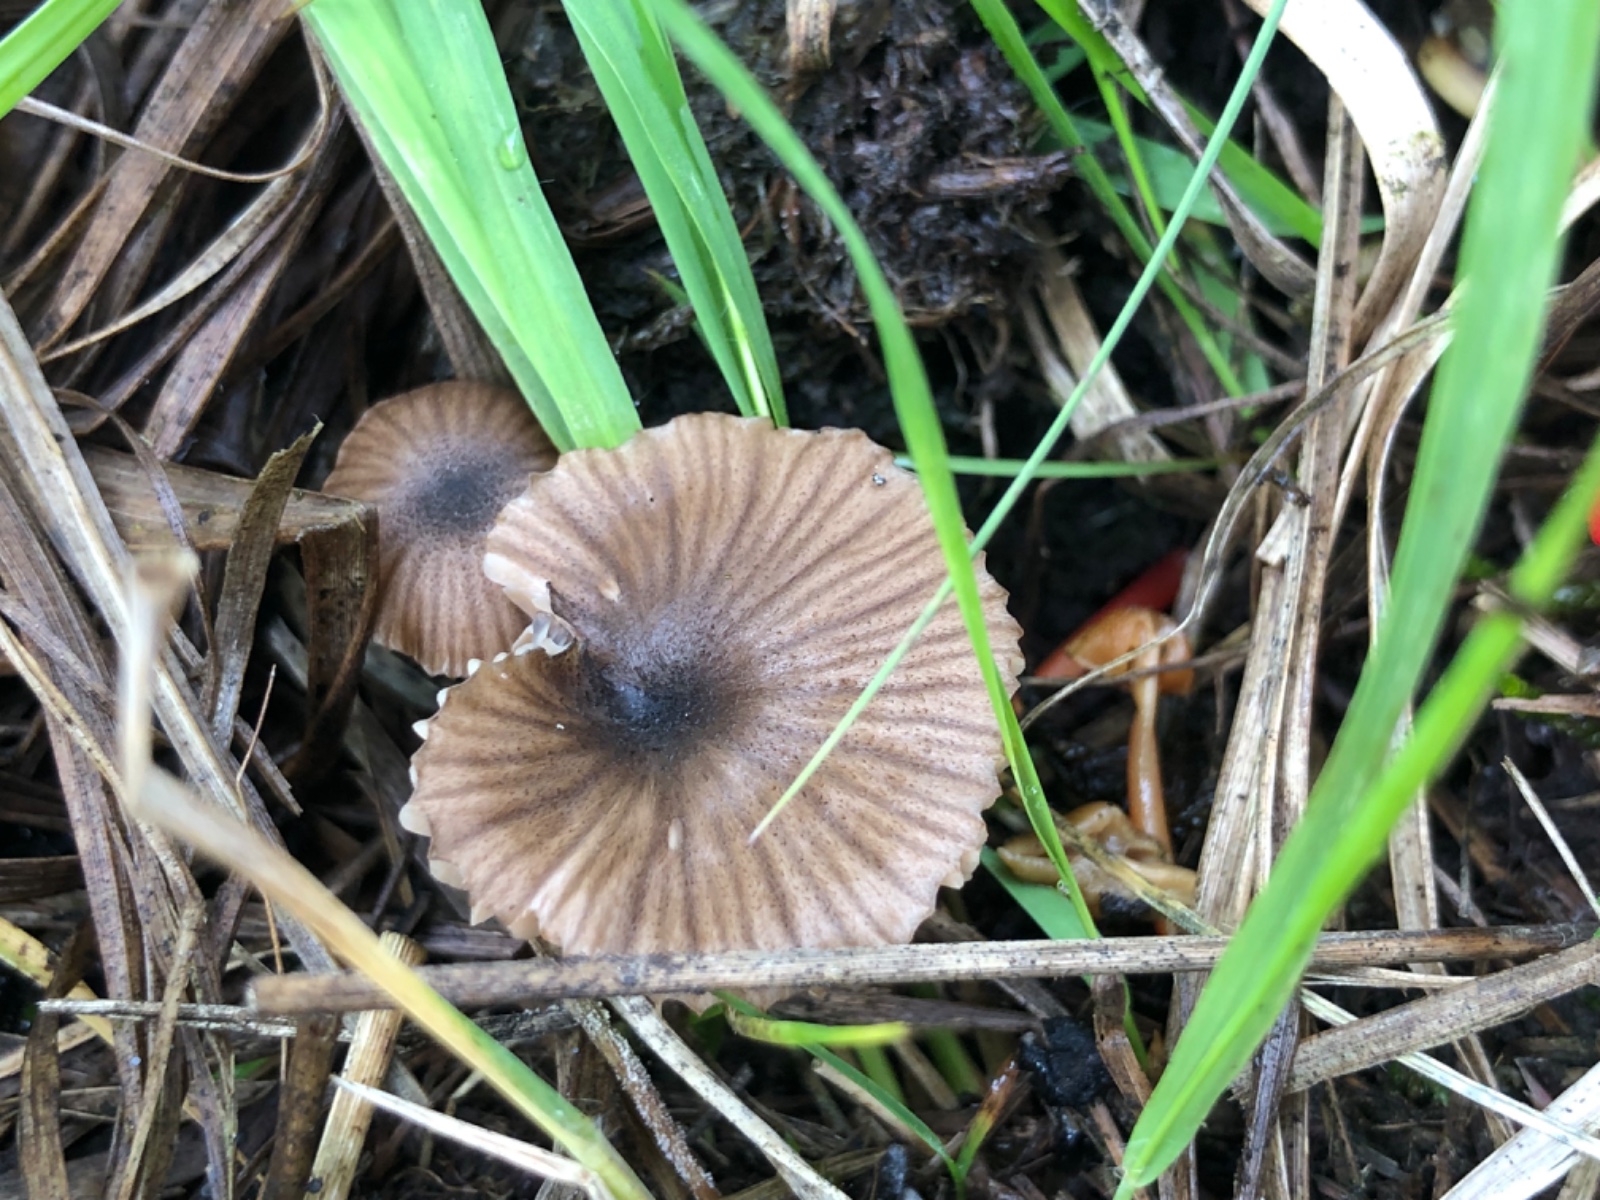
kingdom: Fungi
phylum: Basidiomycota
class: Agaricomycetes
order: Agaricales
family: Entolomataceae
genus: Entoloma
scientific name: Entoloma
